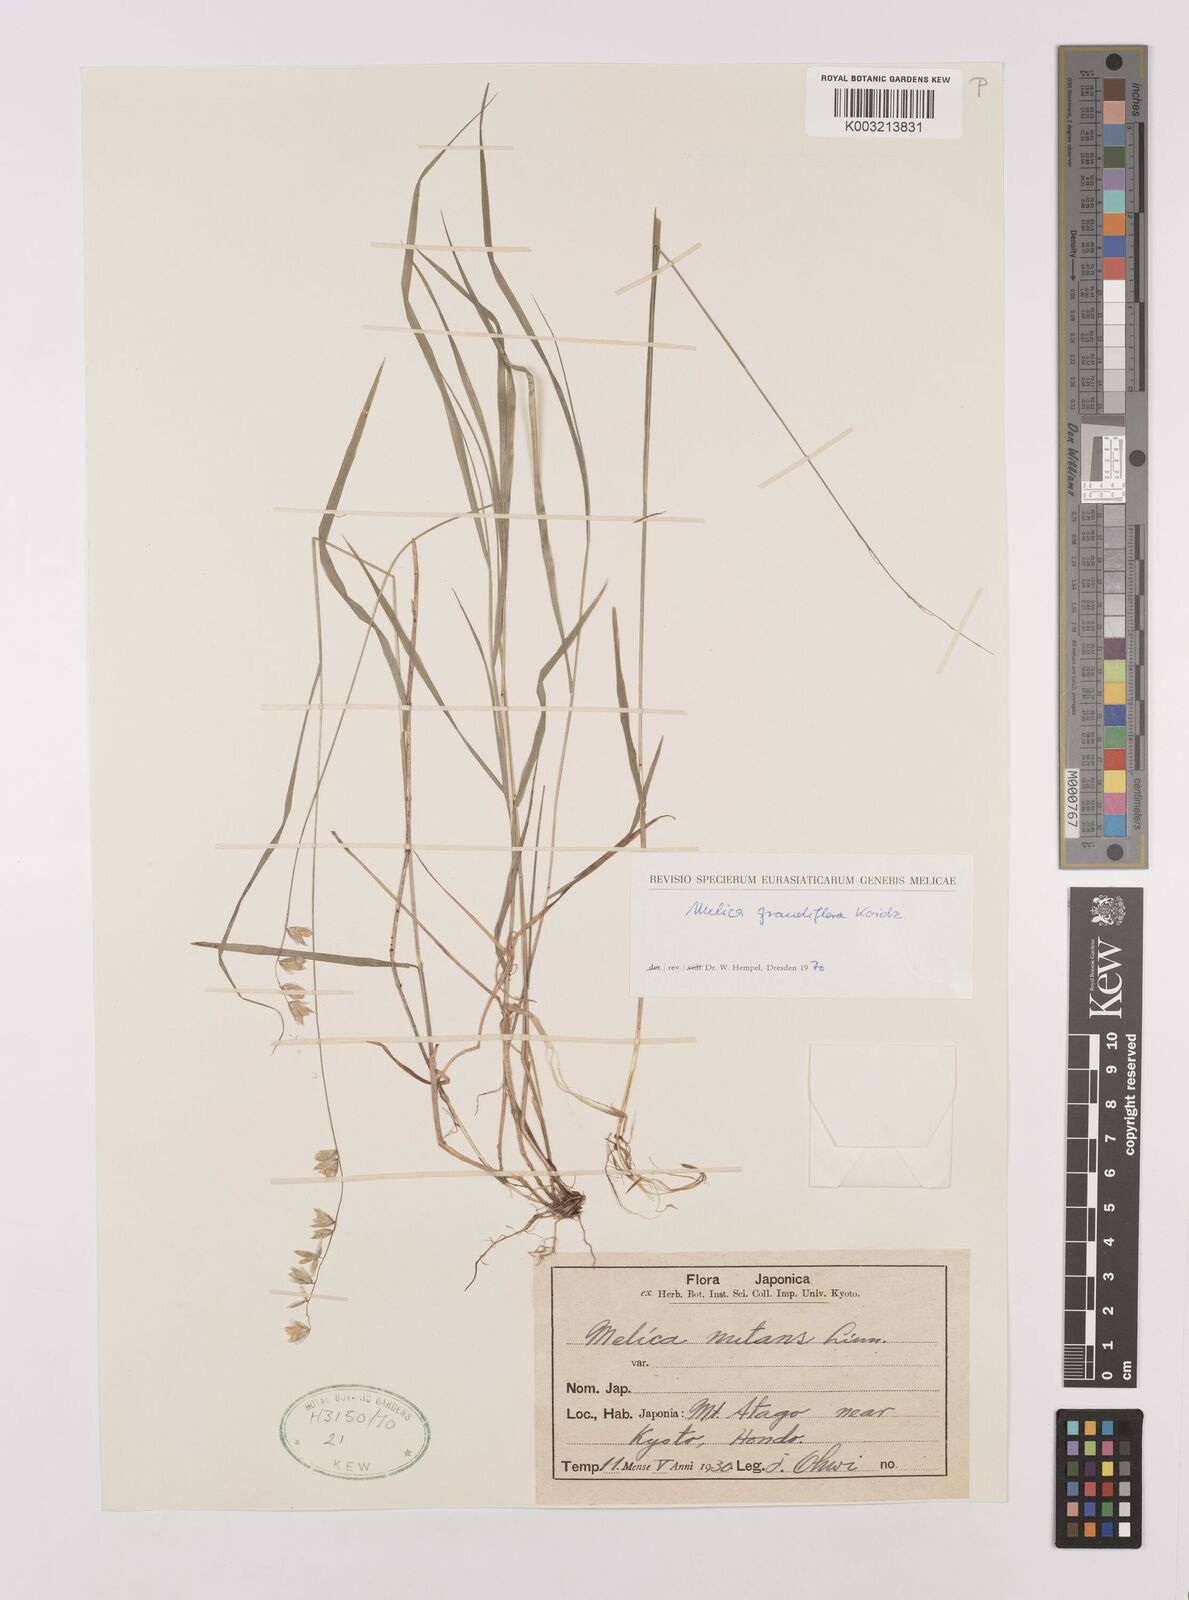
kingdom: Plantae
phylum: Tracheophyta
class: Liliopsida
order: Poales
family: Poaceae
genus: Melica
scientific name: Melica nutans
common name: Mountain melick
